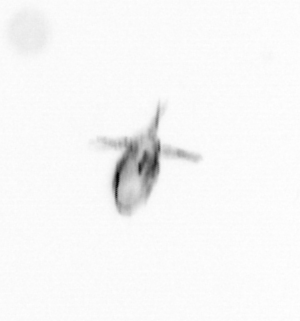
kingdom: Animalia
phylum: Arthropoda
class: Copepoda
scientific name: Copepoda
